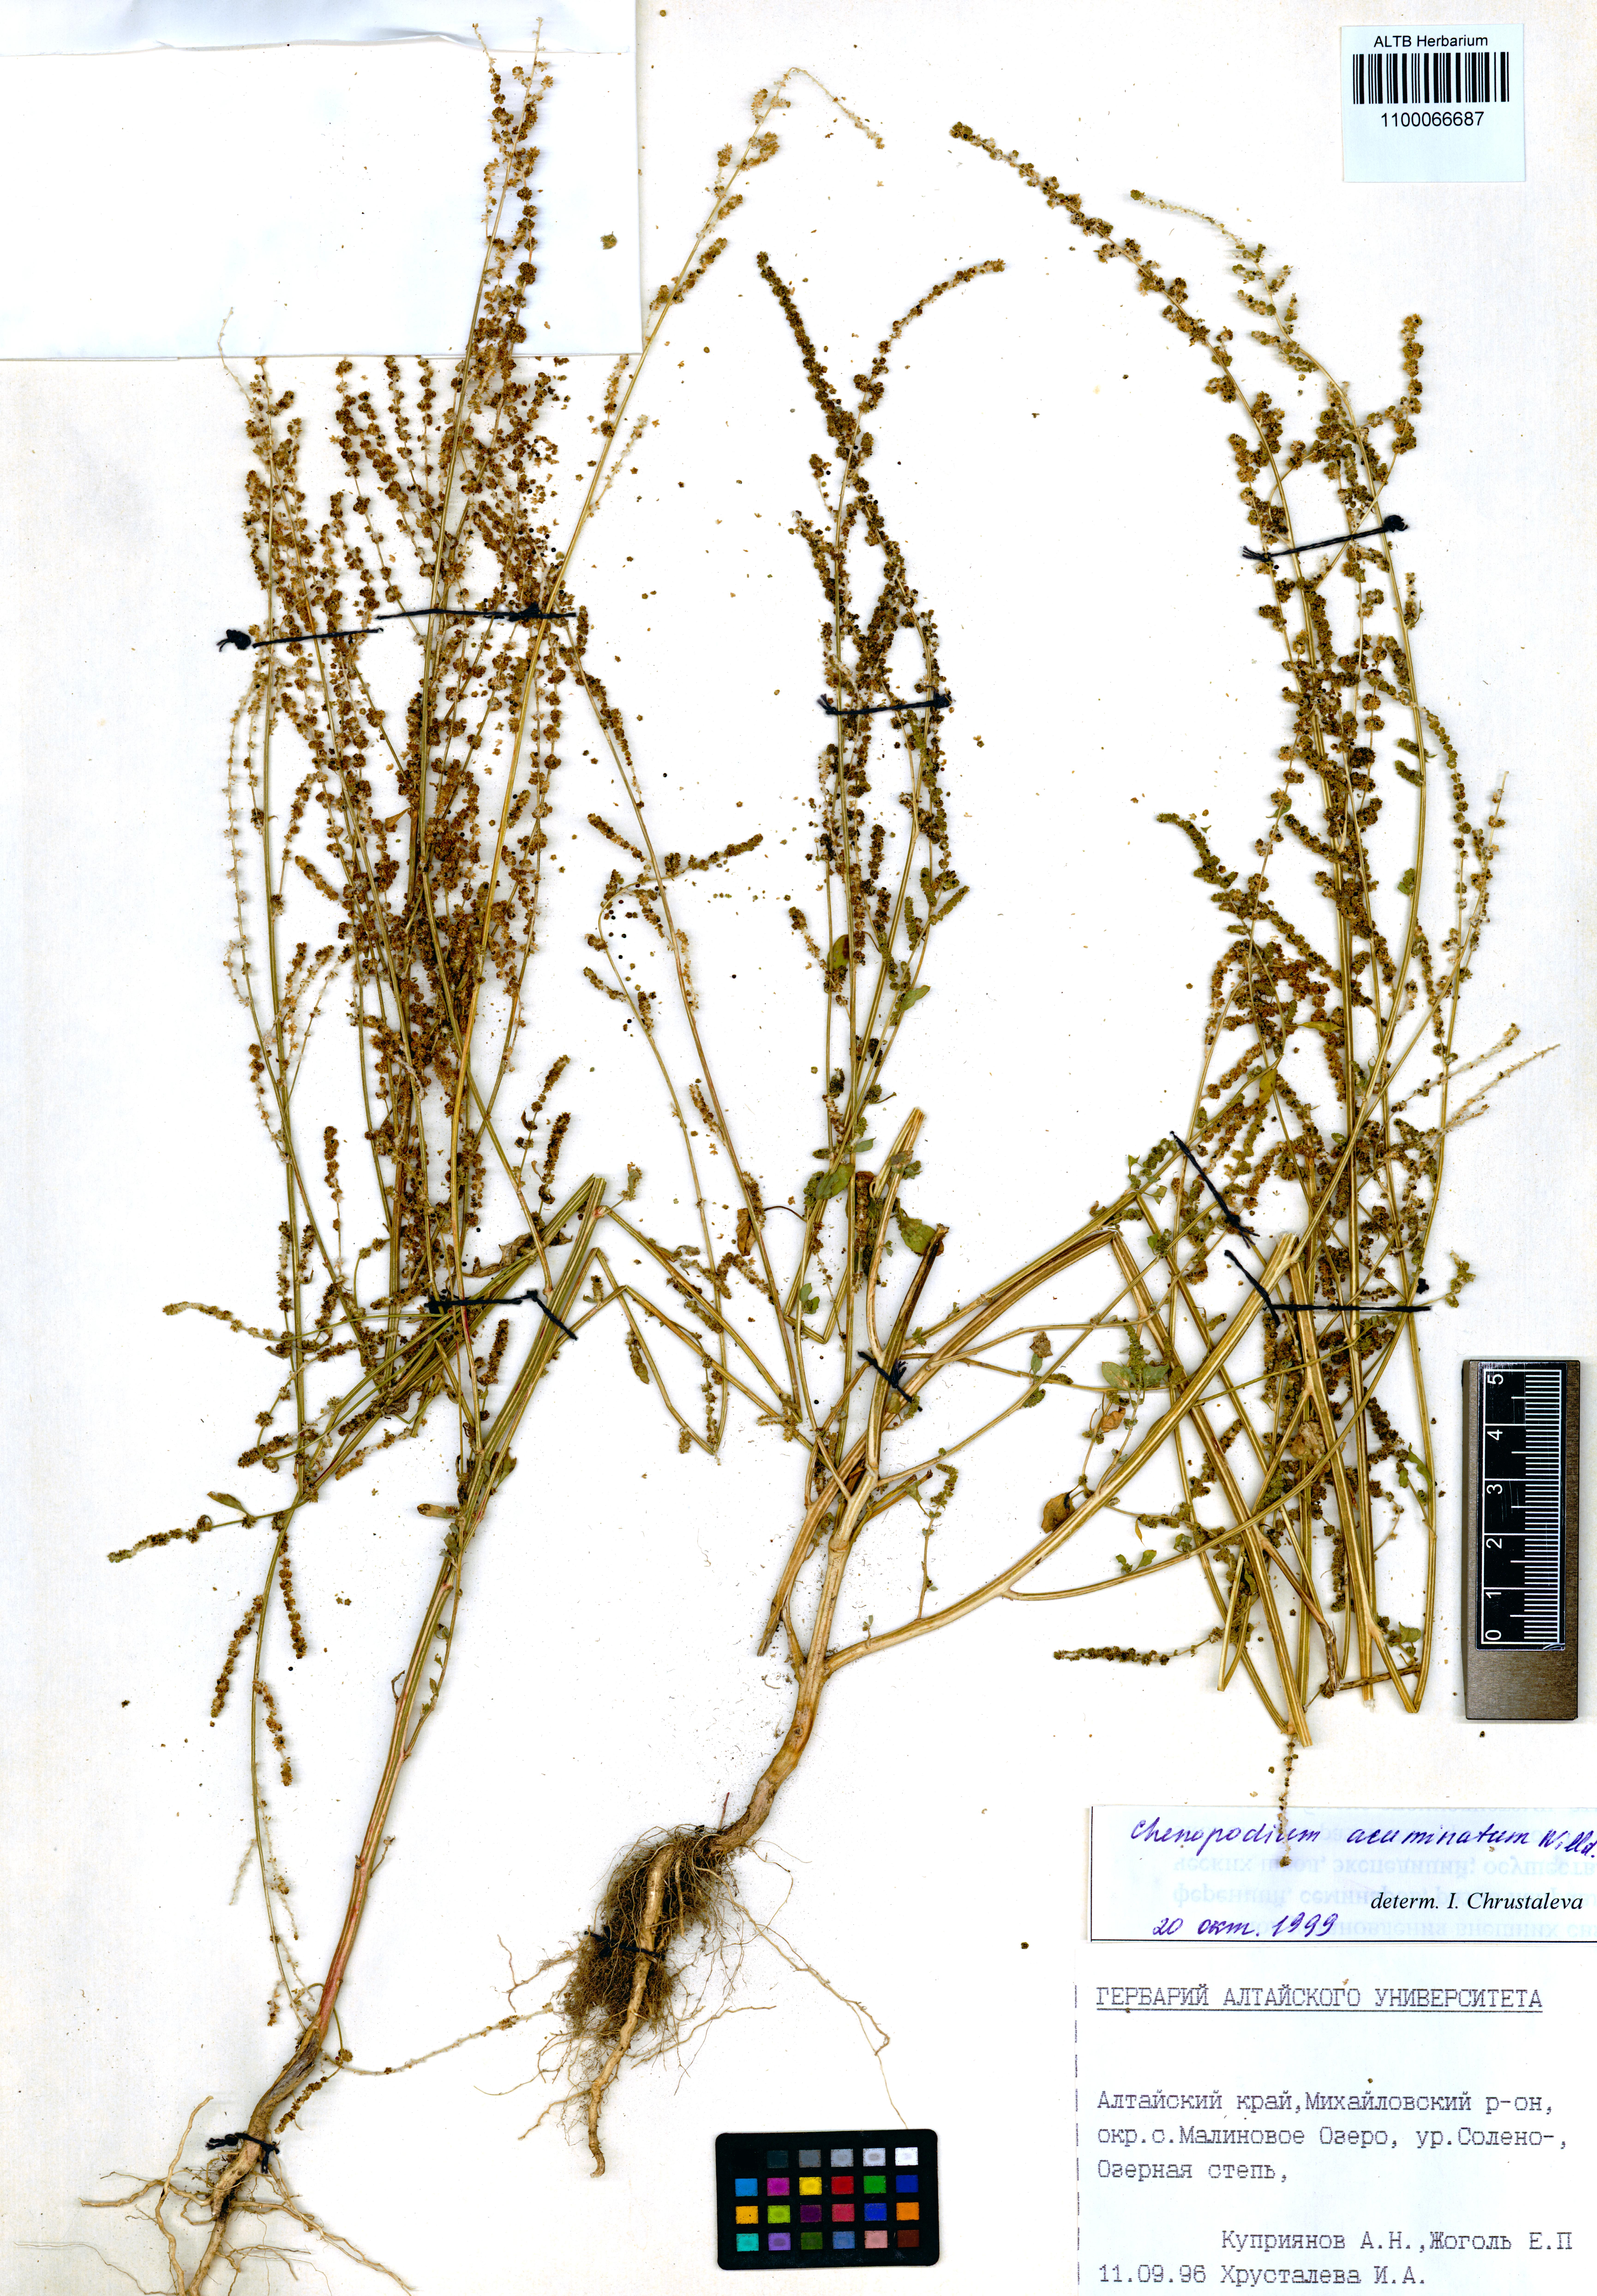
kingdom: Plantae
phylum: Tracheophyta
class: Magnoliopsida
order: Caryophyllales
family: Amaranthaceae
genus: Chenopodium
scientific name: Chenopodium acuminatum
